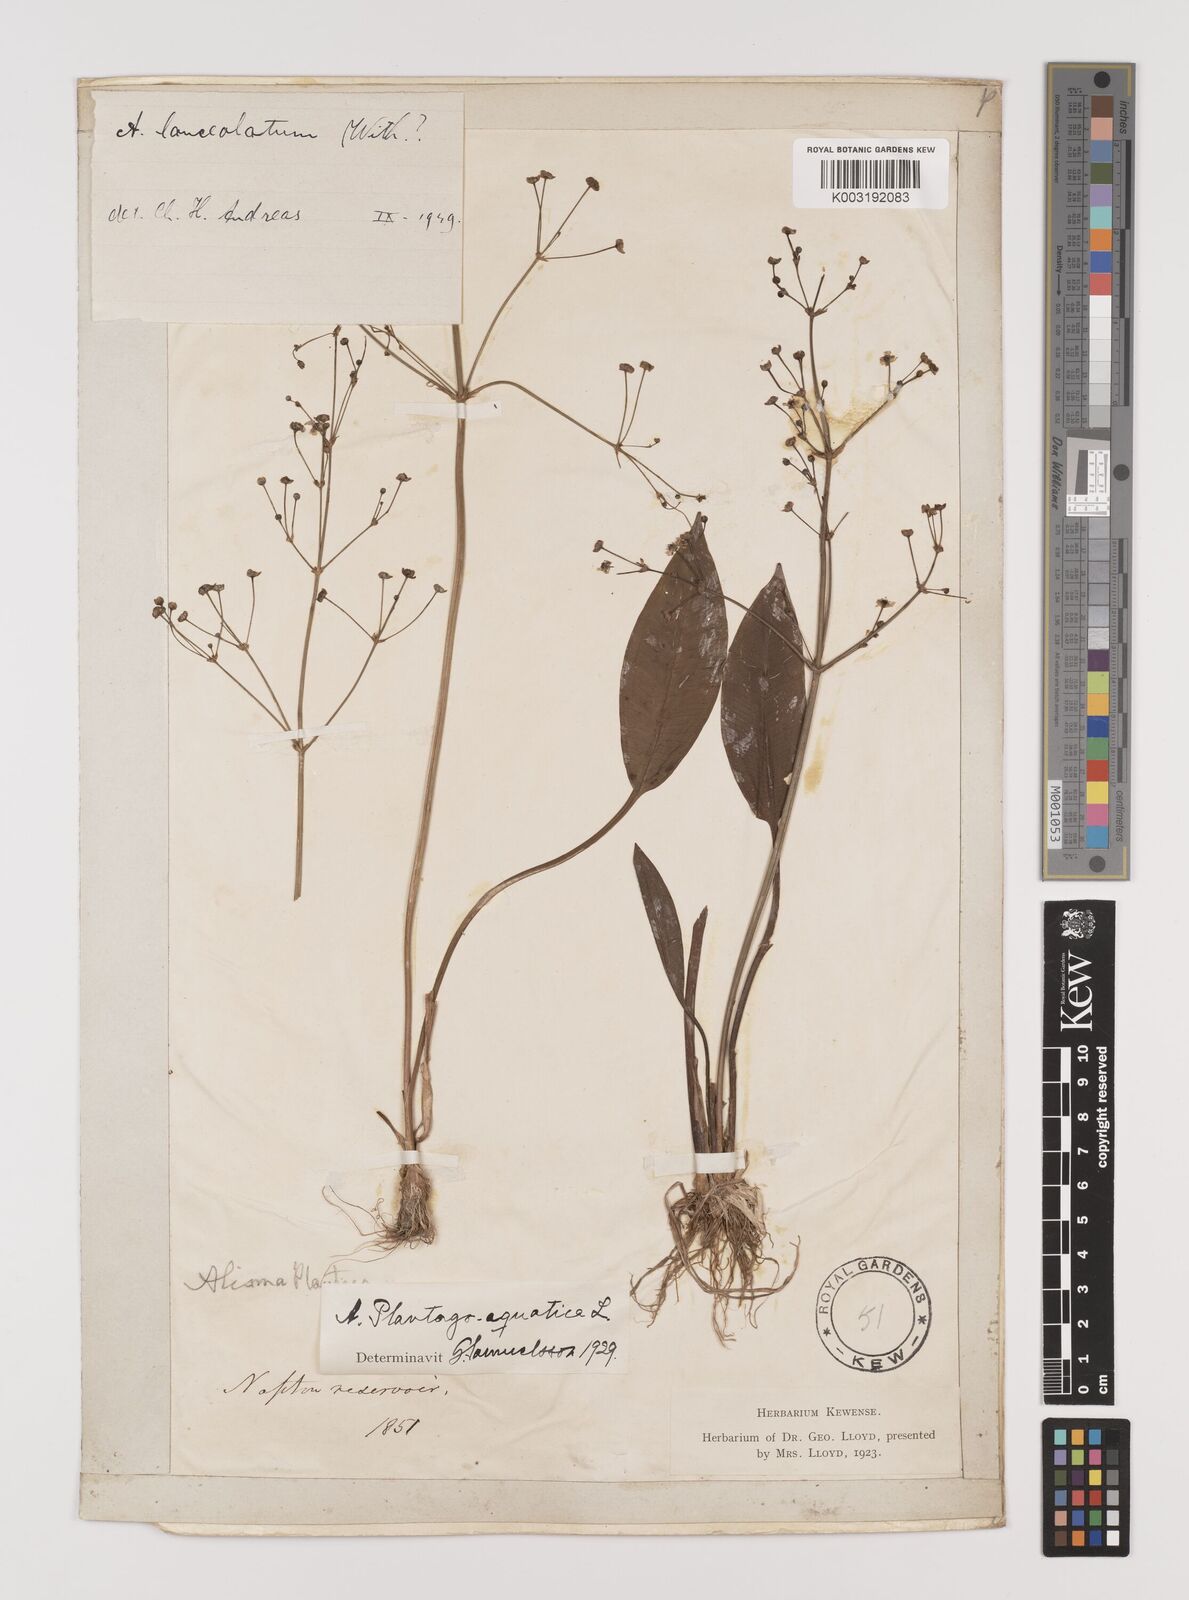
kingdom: Plantae
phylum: Tracheophyta
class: Liliopsida
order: Alismatales
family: Alismataceae
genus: Alisma
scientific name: Alisma plantago-aquatica
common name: Water-plantain
